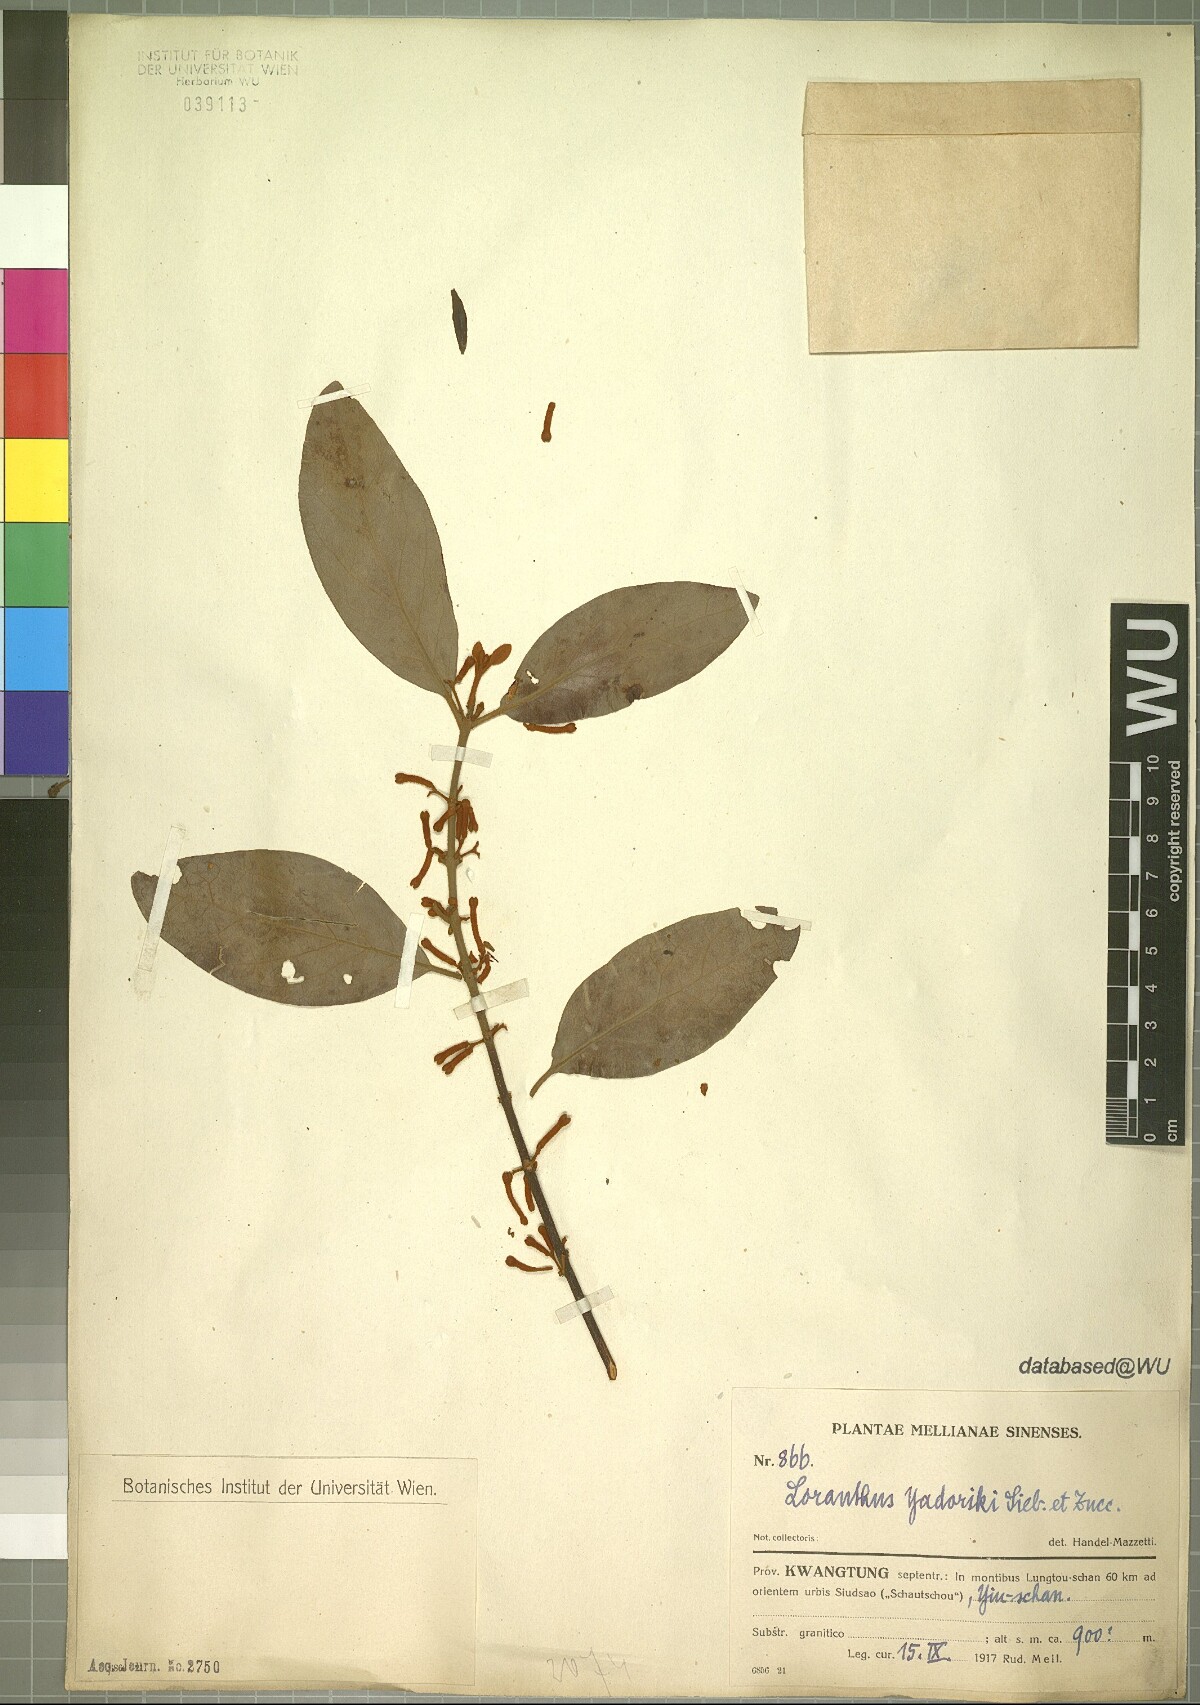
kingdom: Plantae
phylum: Tracheophyta
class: Magnoliopsida
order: Santalales
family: Loranthaceae
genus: Taxillus
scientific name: Taxillus sutchuenensis
